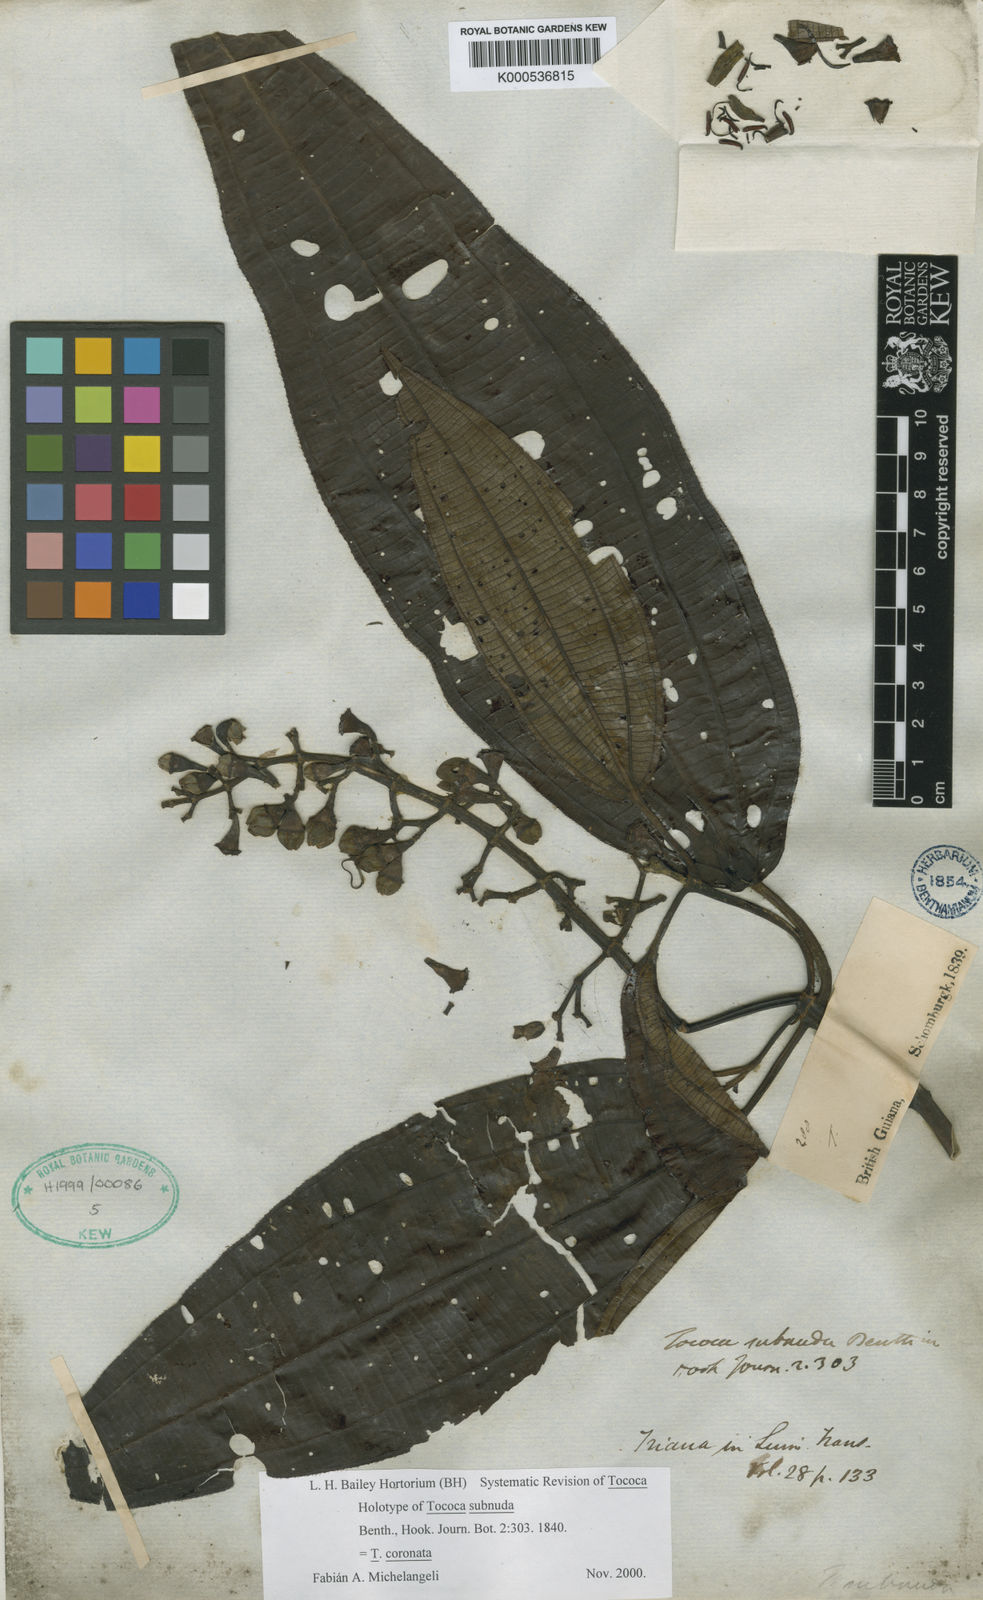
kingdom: Plantae
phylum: Tracheophyta
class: Magnoliopsida
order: Myrtales
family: Melastomataceae
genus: Miconia
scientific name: Miconia subciliata
